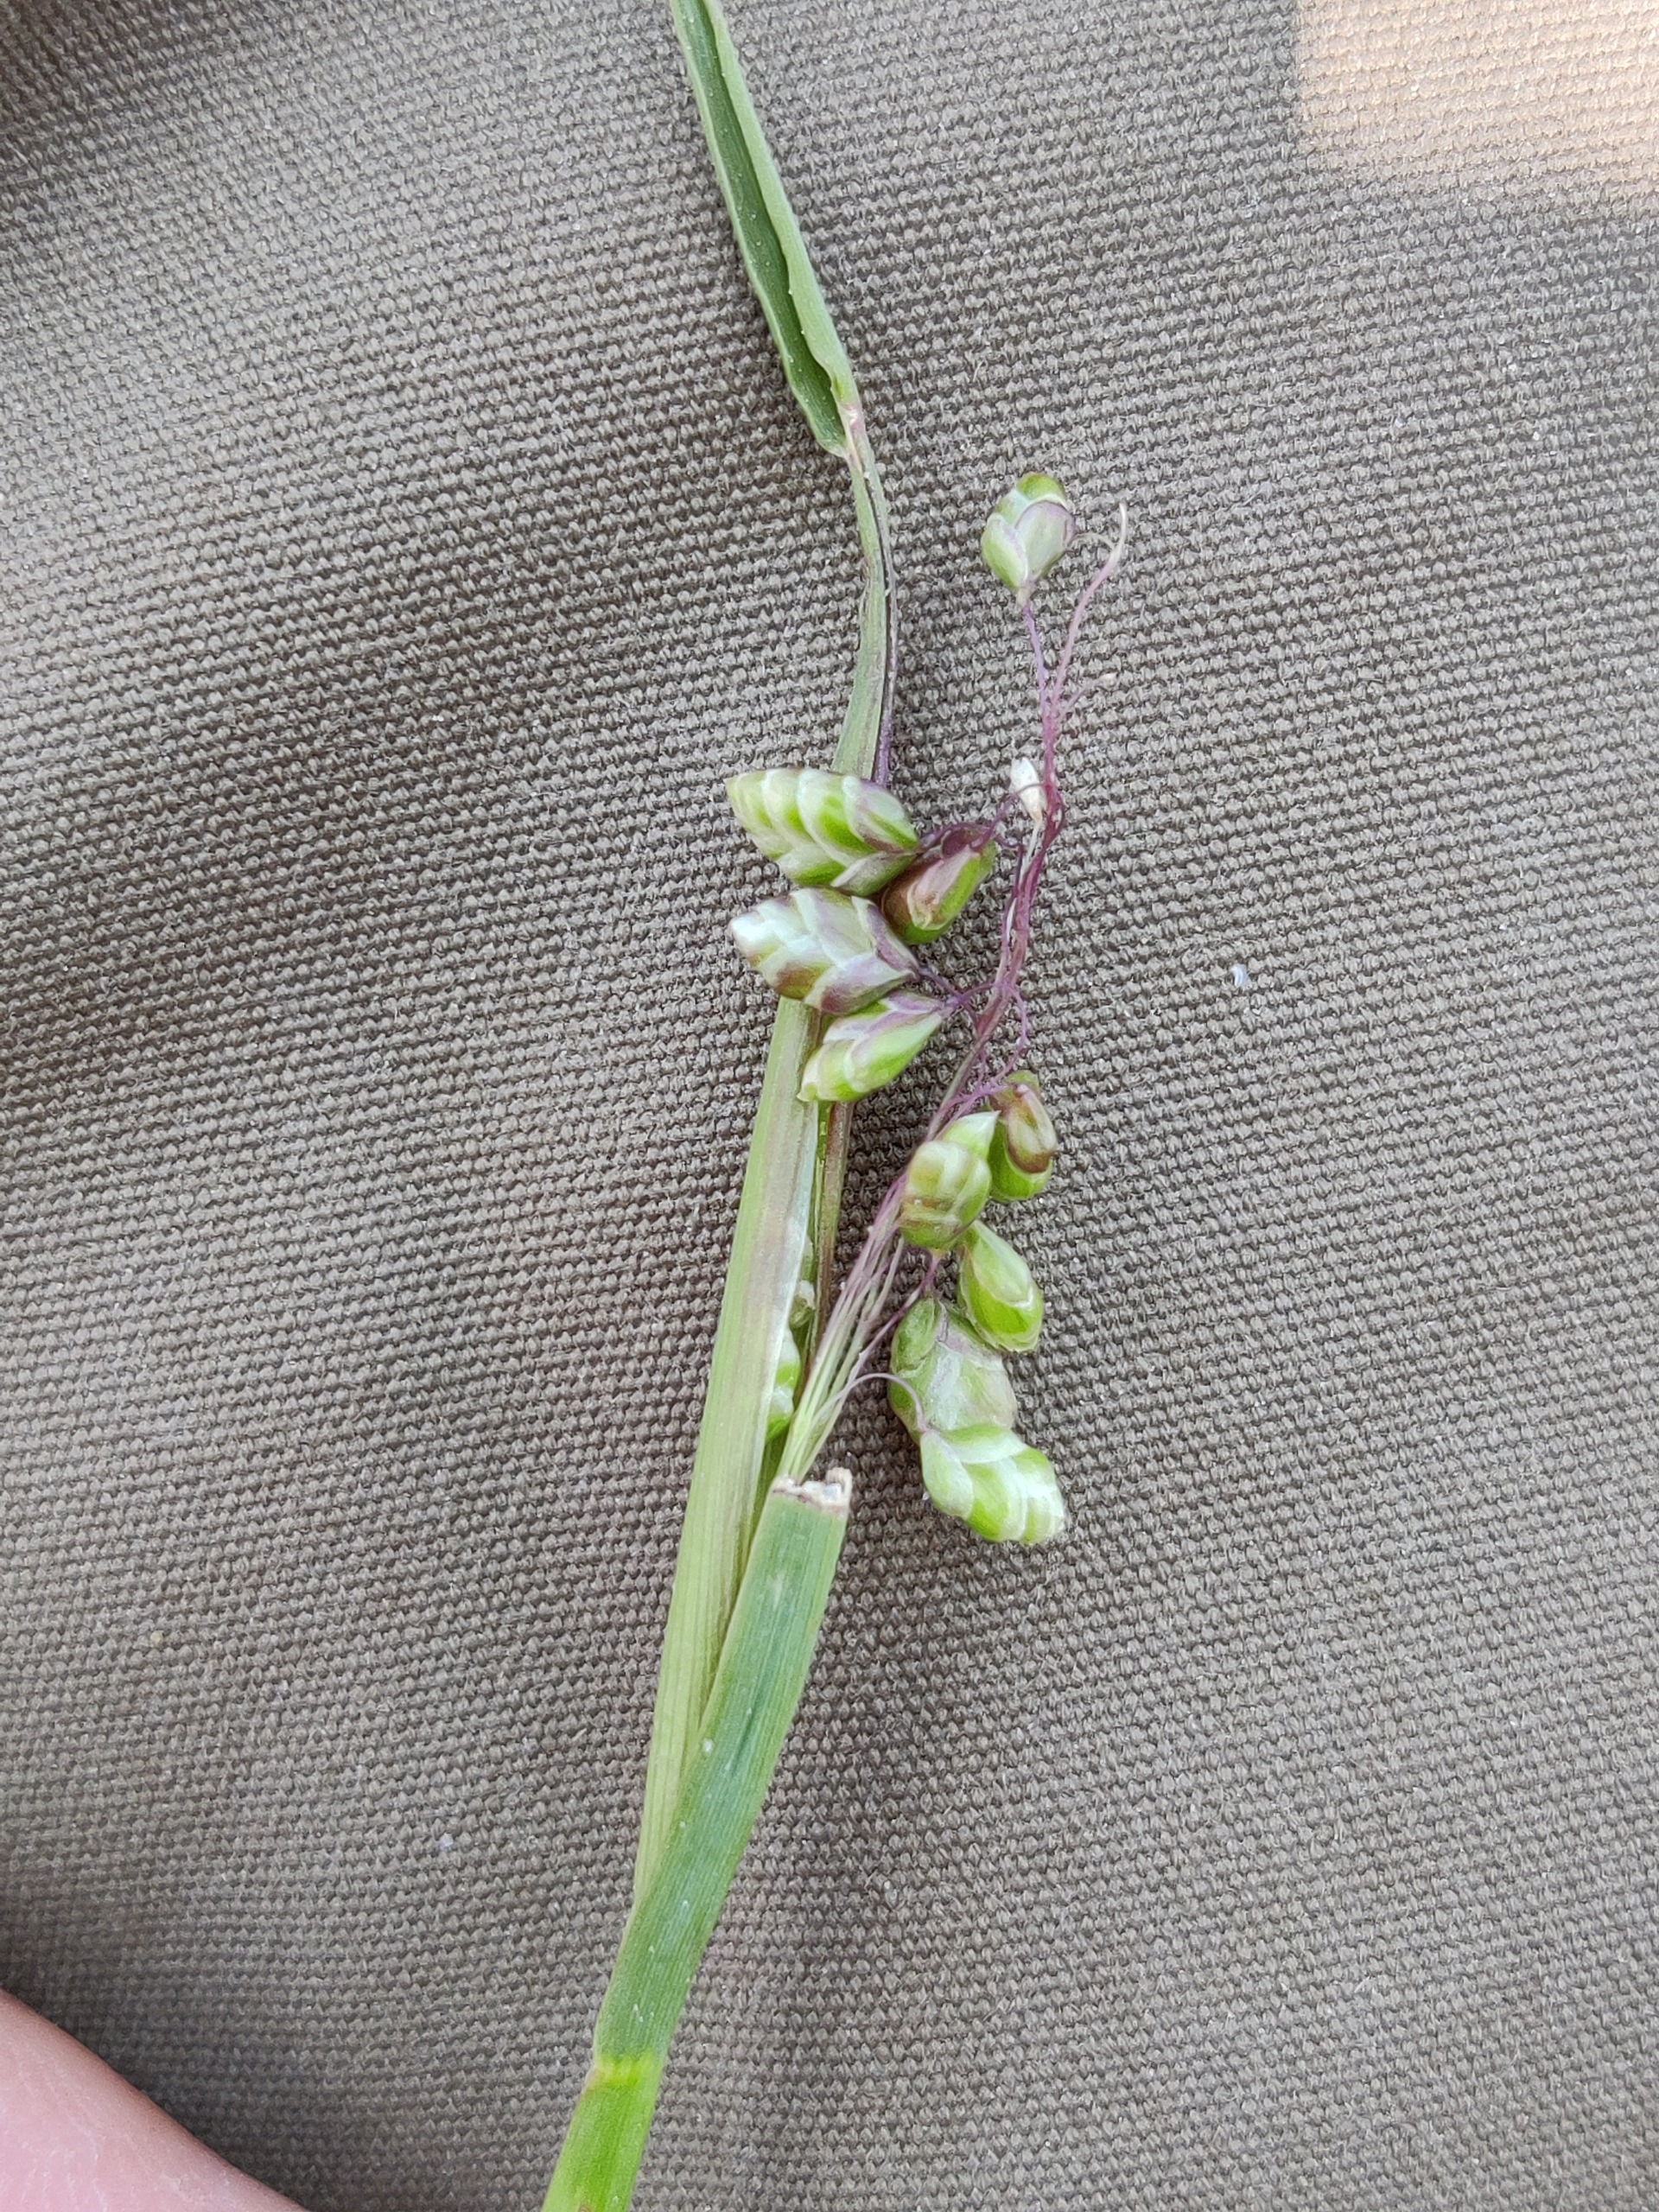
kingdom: Plantae
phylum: Tracheophyta
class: Liliopsida
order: Poales
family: Poaceae
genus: Briza
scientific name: Briza media
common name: Hjertegræs
